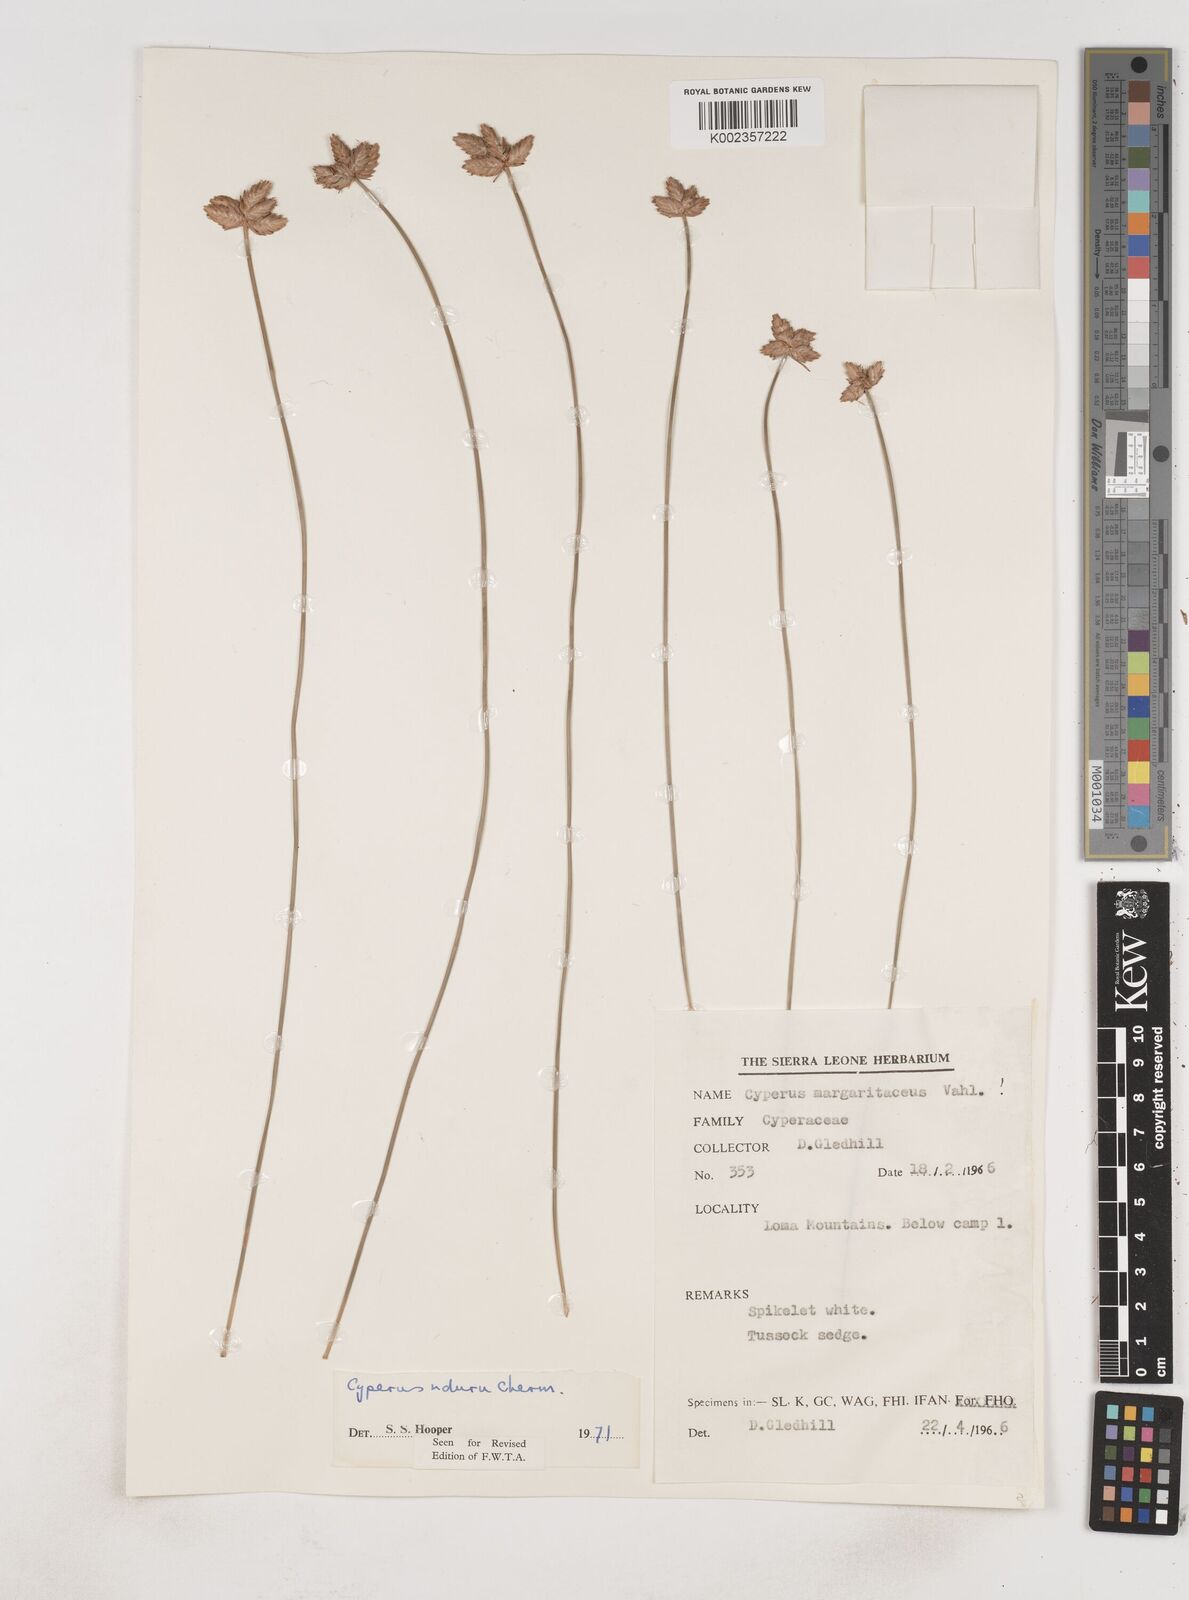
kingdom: Plantae
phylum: Tracheophyta
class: Liliopsida
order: Poales
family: Cyperaceae
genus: Cyperus
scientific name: Cyperus nduru
